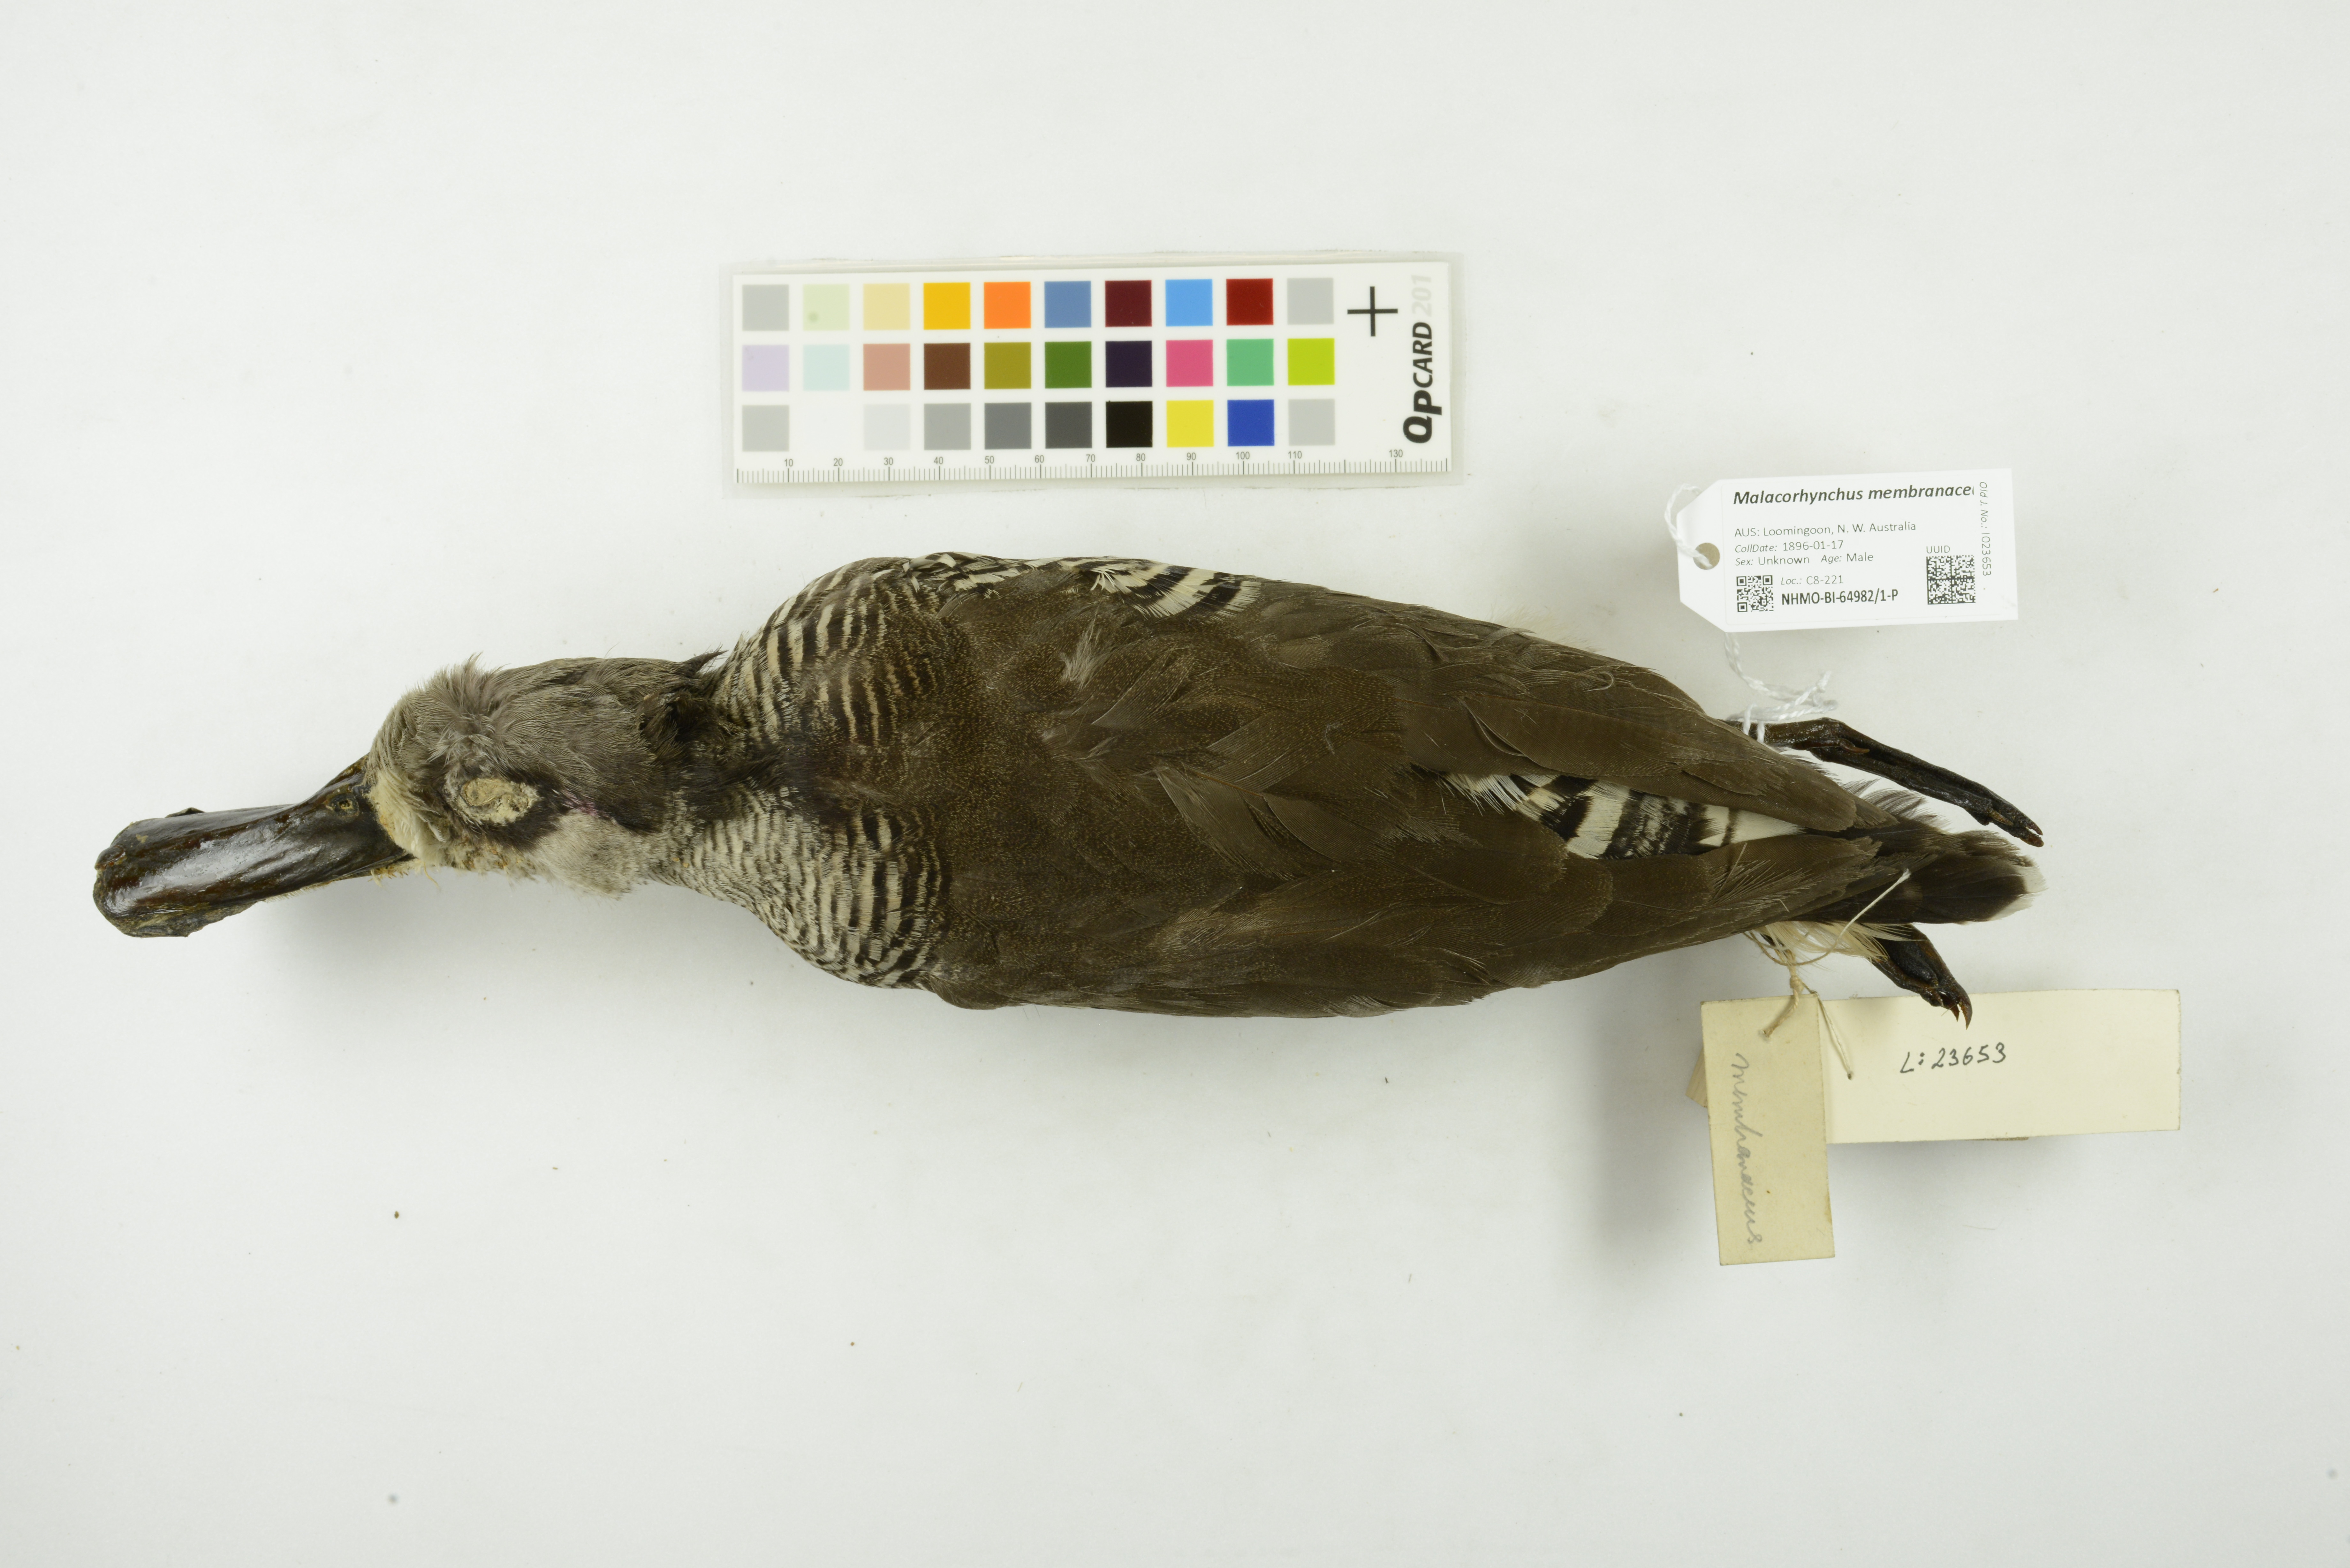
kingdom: Animalia
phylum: Chordata
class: Aves
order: Anseriformes
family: Anatidae
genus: Malacorhynchus
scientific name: Malacorhynchus membranaceus
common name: Pink-eared duck
